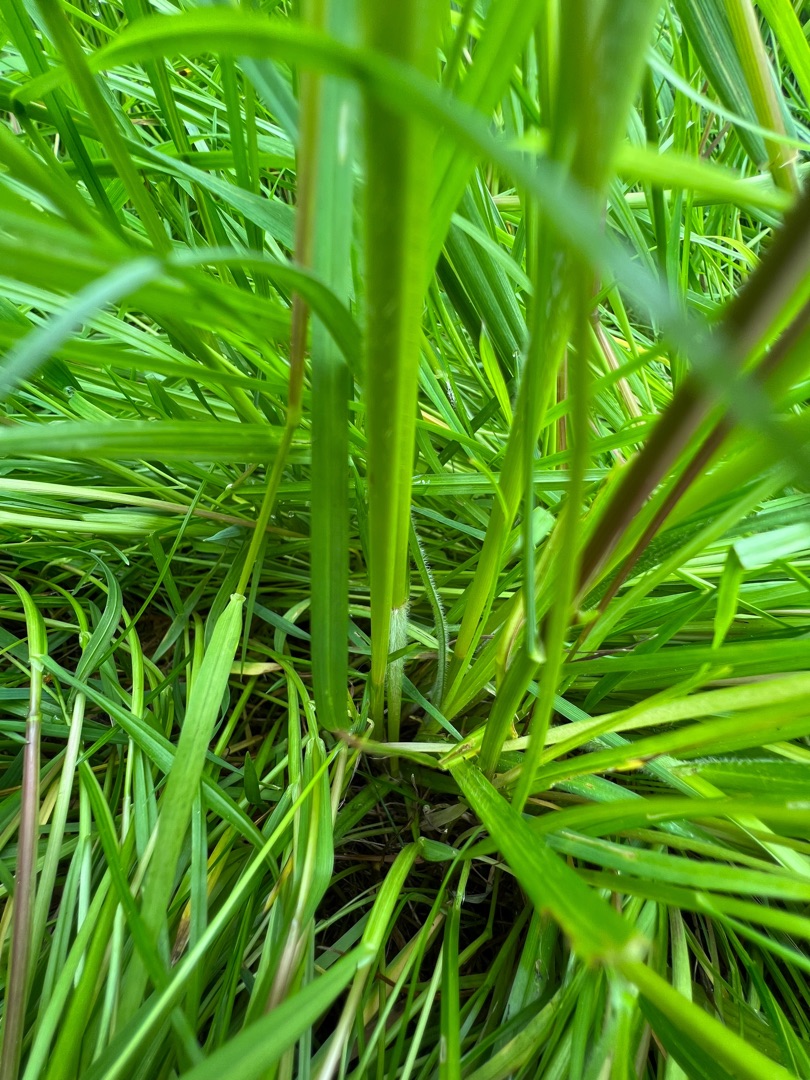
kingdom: Plantae
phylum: Tracheophyta
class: Liliopsida
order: Poales
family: Cyperaceae
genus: Carex
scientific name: Carex hirta
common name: Håret star
